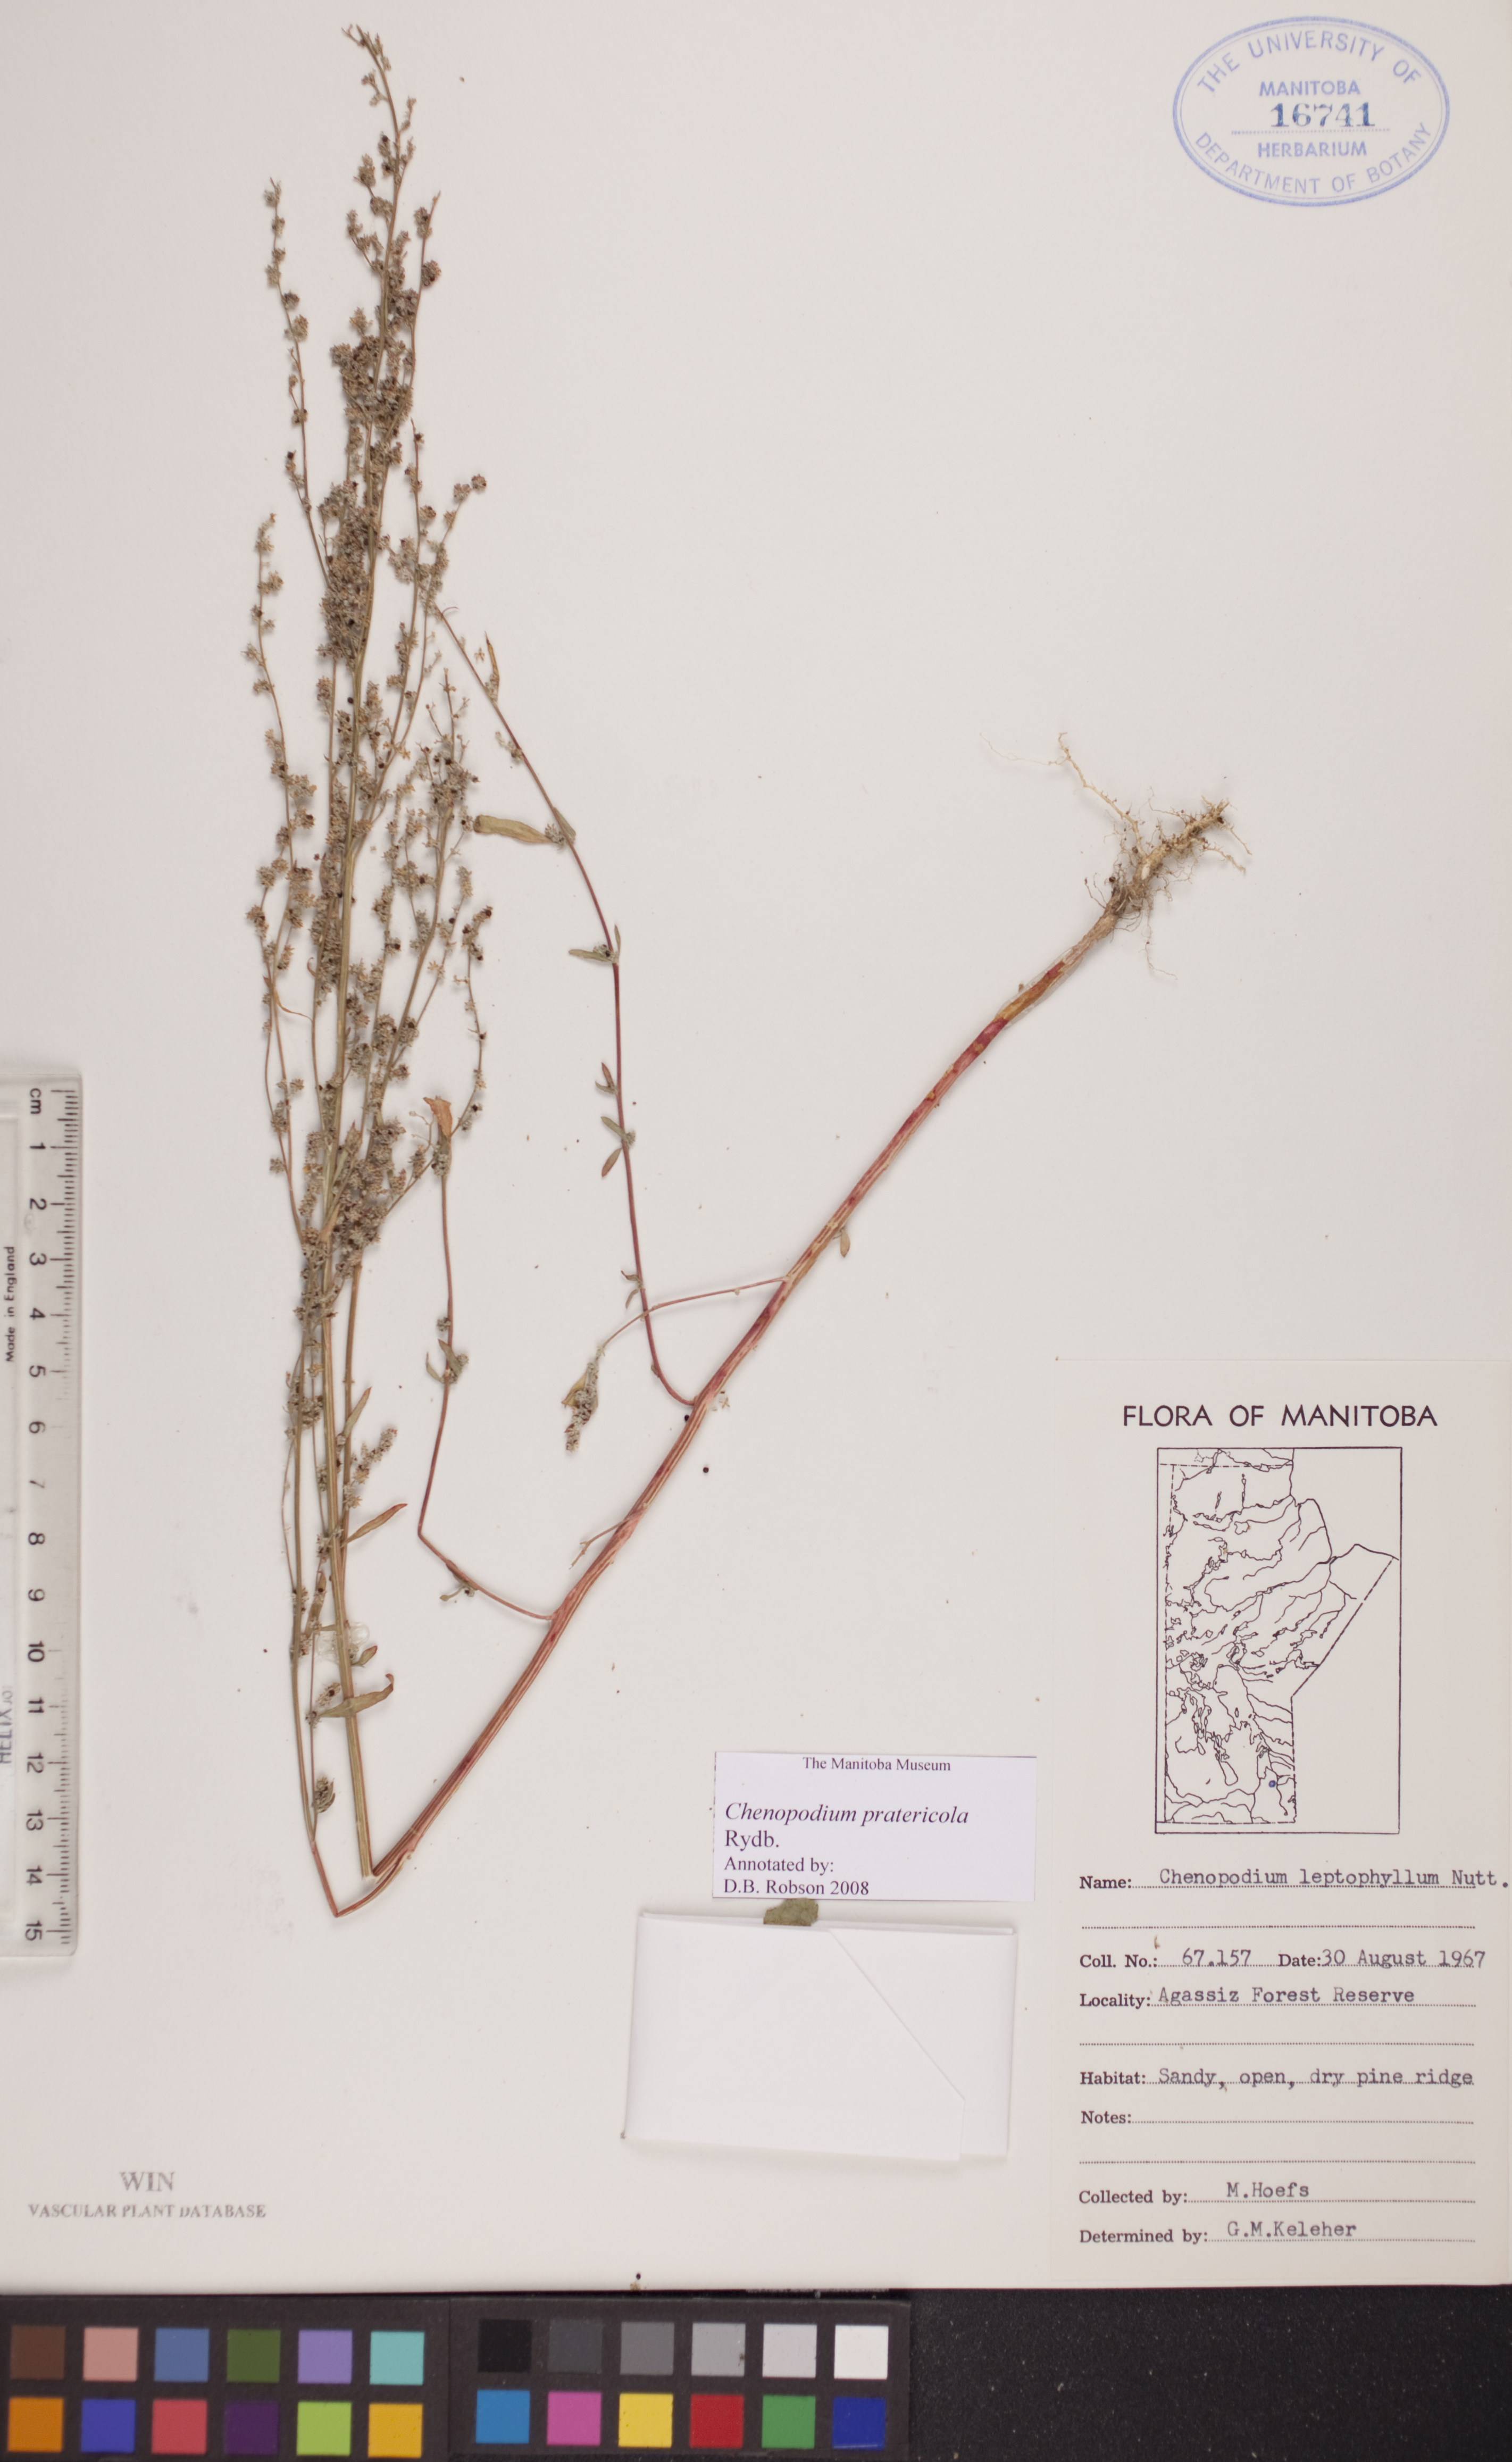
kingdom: Plantae
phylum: Tracheophyta
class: Magnoliopsida
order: Caryophyllales
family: Amaranthaceae
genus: Chenopodium
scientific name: Chenopodium pratericola
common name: Desert goosefoot
